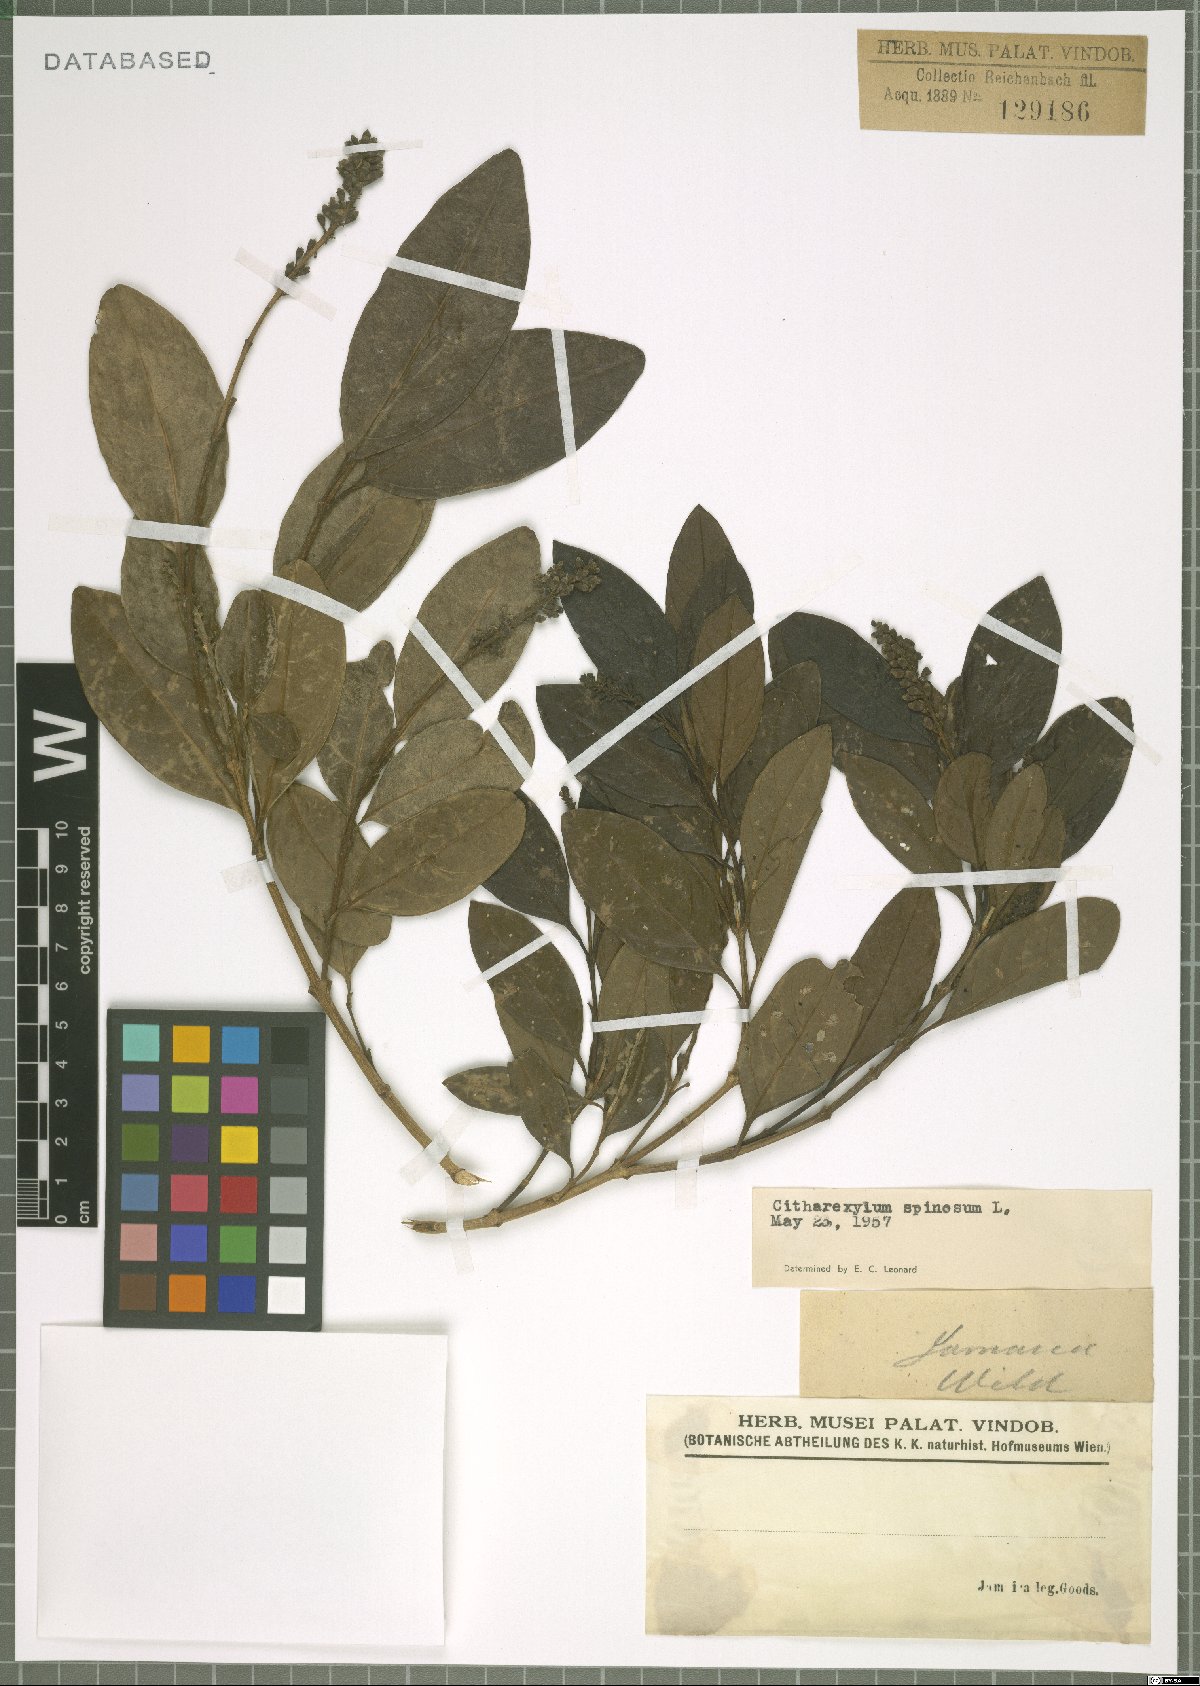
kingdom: Plantae
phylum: Tracheophyta
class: Magnoliopsida
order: Lamiales
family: Verbenaceae
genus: Citharexylum
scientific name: Citharexylum spinosum
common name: Fiddlewood
